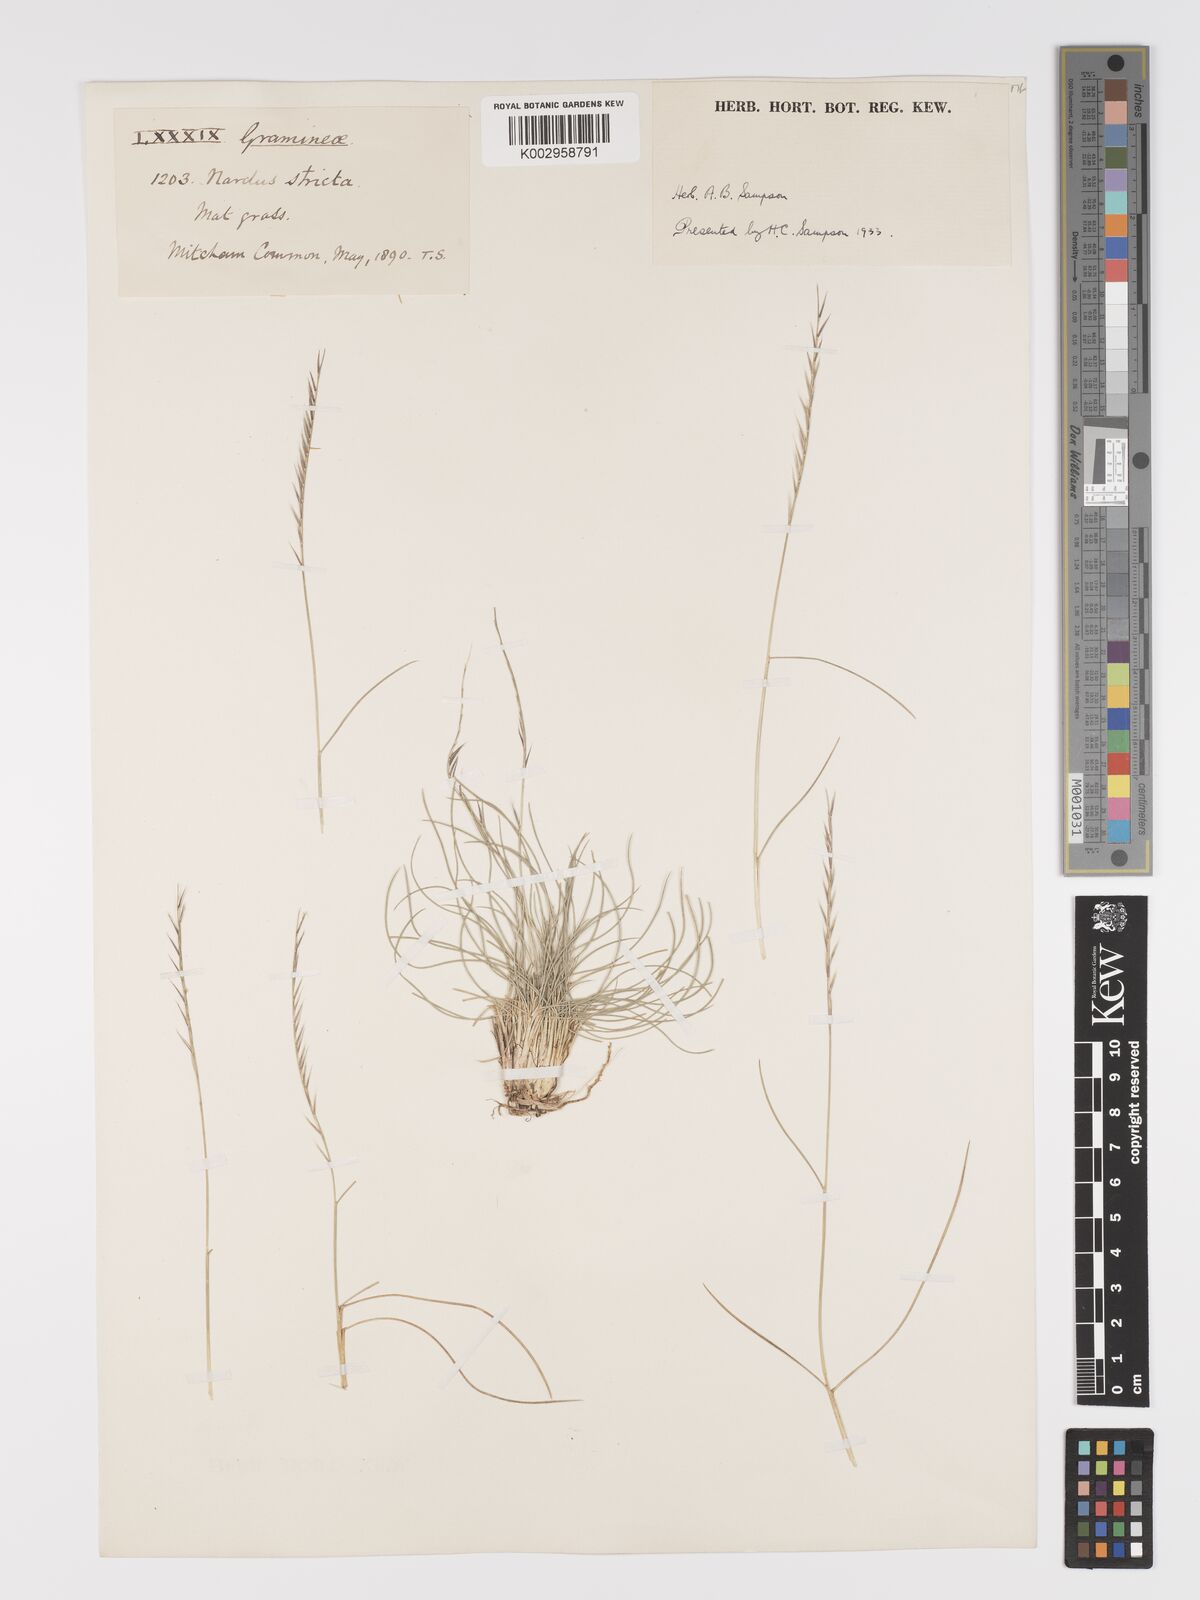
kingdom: Plantae
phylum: Tracheophyta
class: Liliopsida
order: Poales
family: Poaceae
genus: Nardus
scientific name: Nardus stricta
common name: Mat-grass
